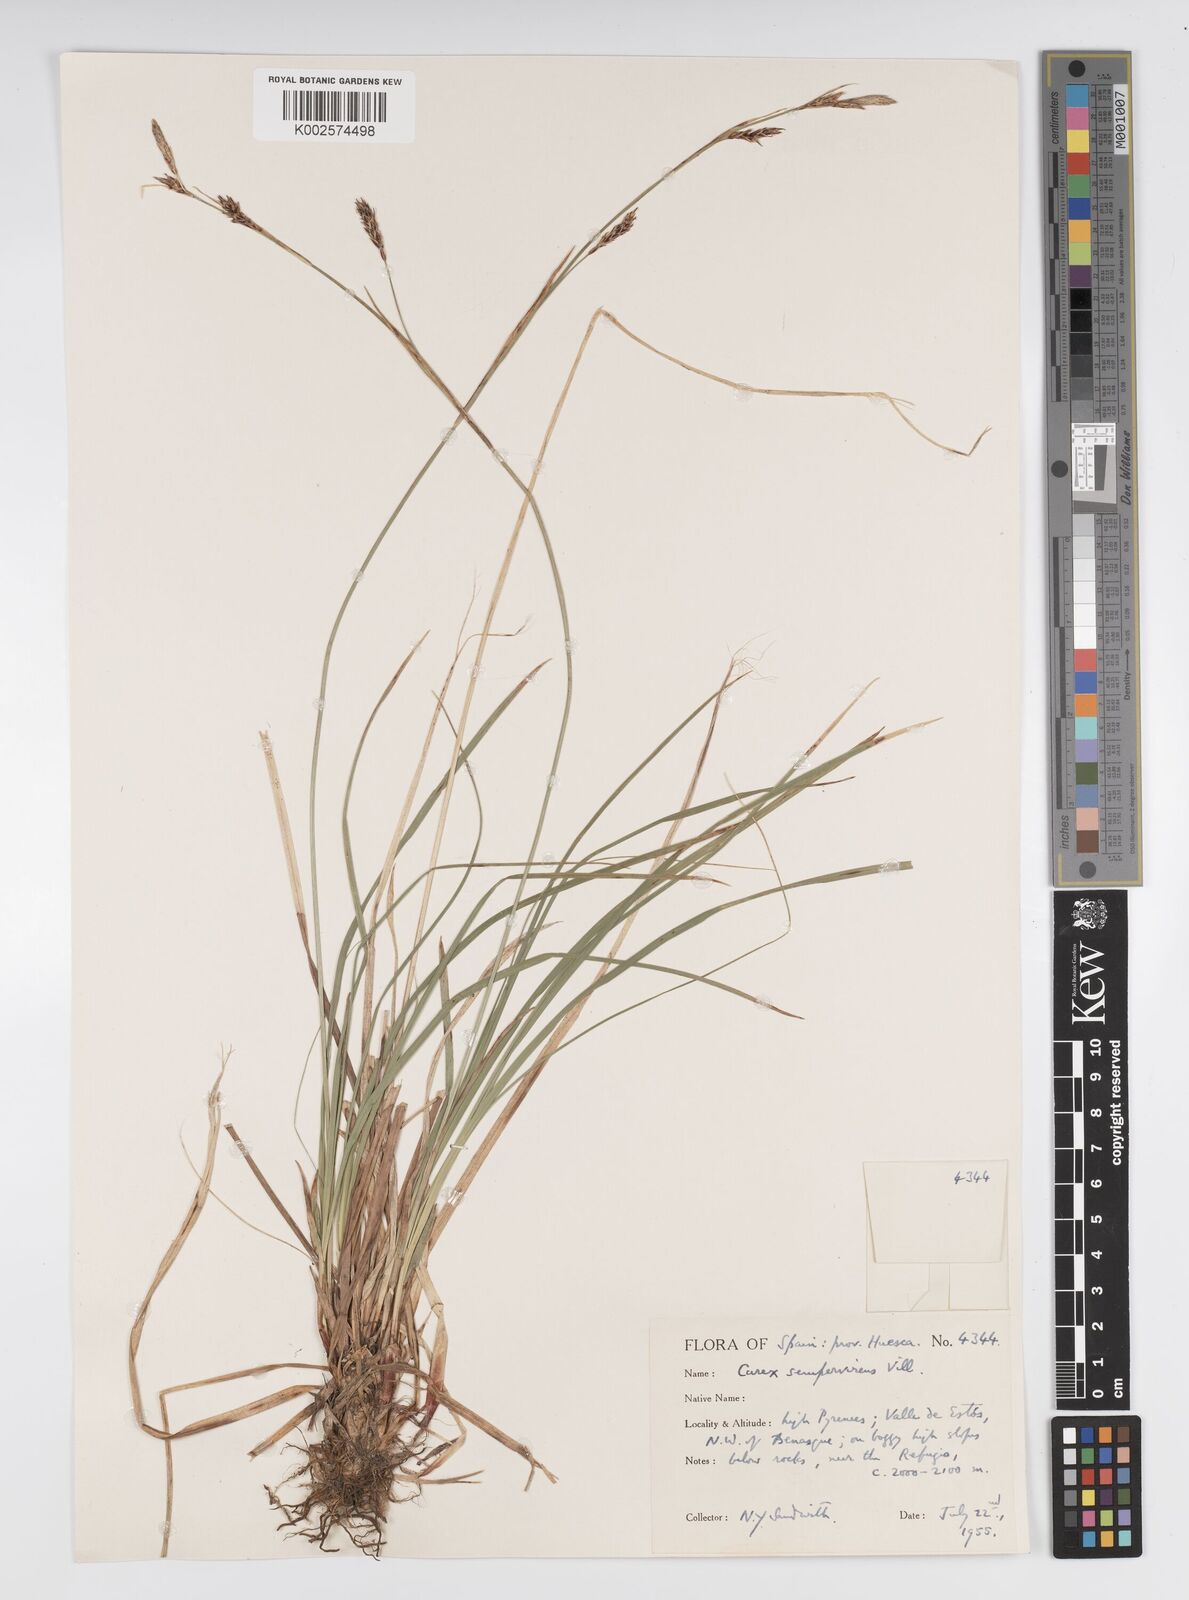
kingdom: Plantae
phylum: Tracheophyta
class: Liliopsida
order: Poales
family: Cyperaceae
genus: Carex
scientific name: Carex sempervirens
